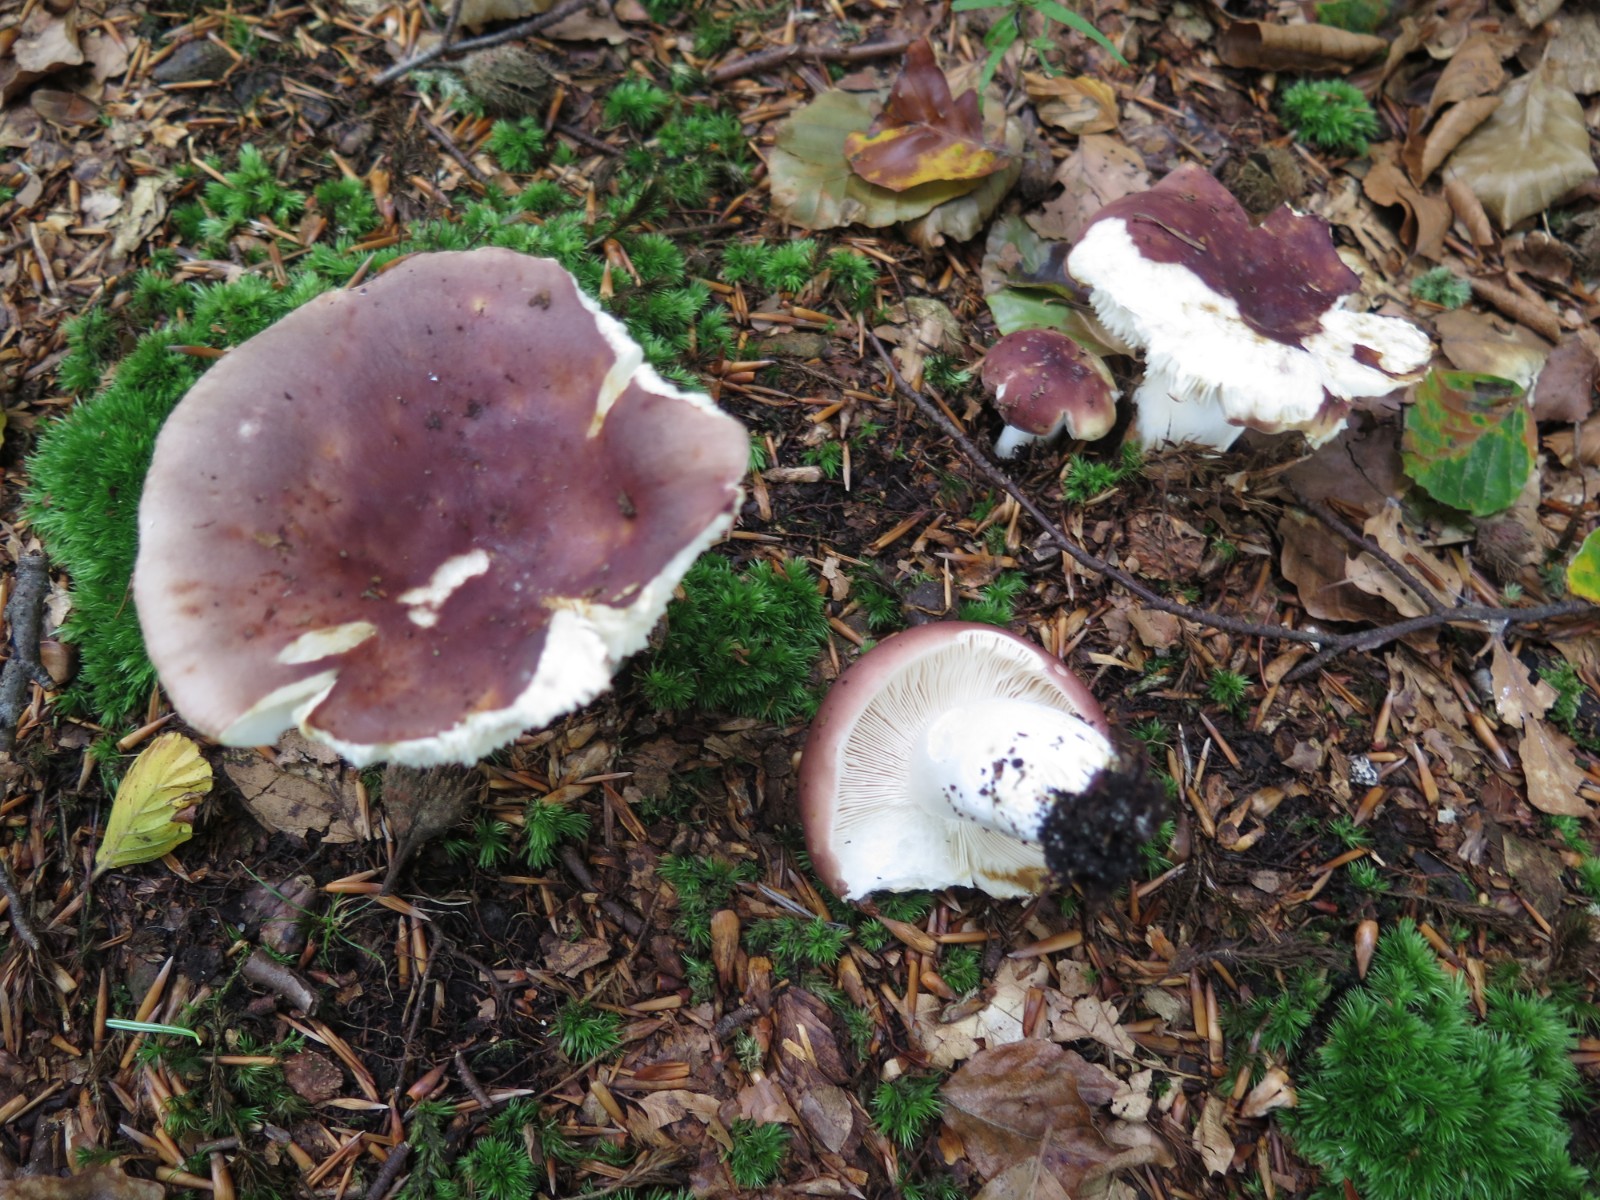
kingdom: Fungi
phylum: Basidiomycota
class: Agaricomycetes
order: Russulales
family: Russulaceae
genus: Russula
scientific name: Russula olivacea
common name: stor skørhat
